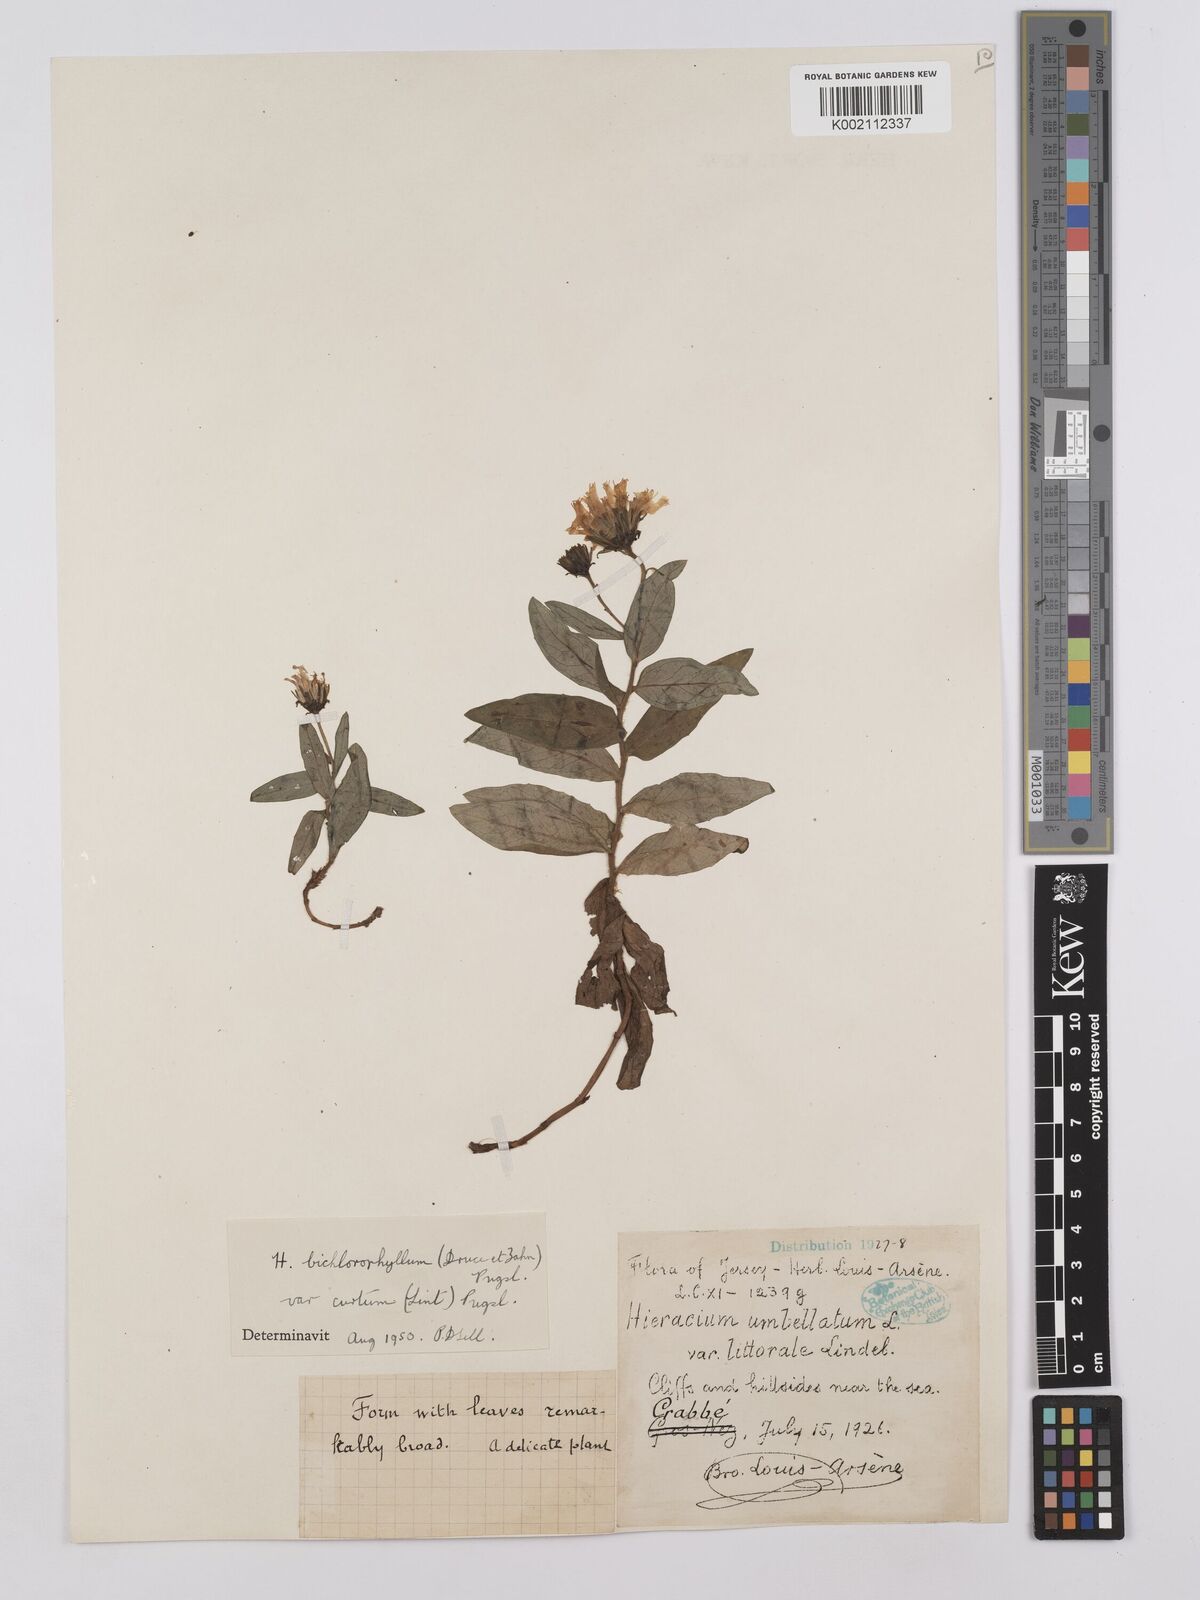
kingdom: Plantae
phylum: Tracheophyta
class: Magnoliopsida
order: Asterales
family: Asteraceae
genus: Hieracium
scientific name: Hieracium umbellatum
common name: Northern hawkweed
